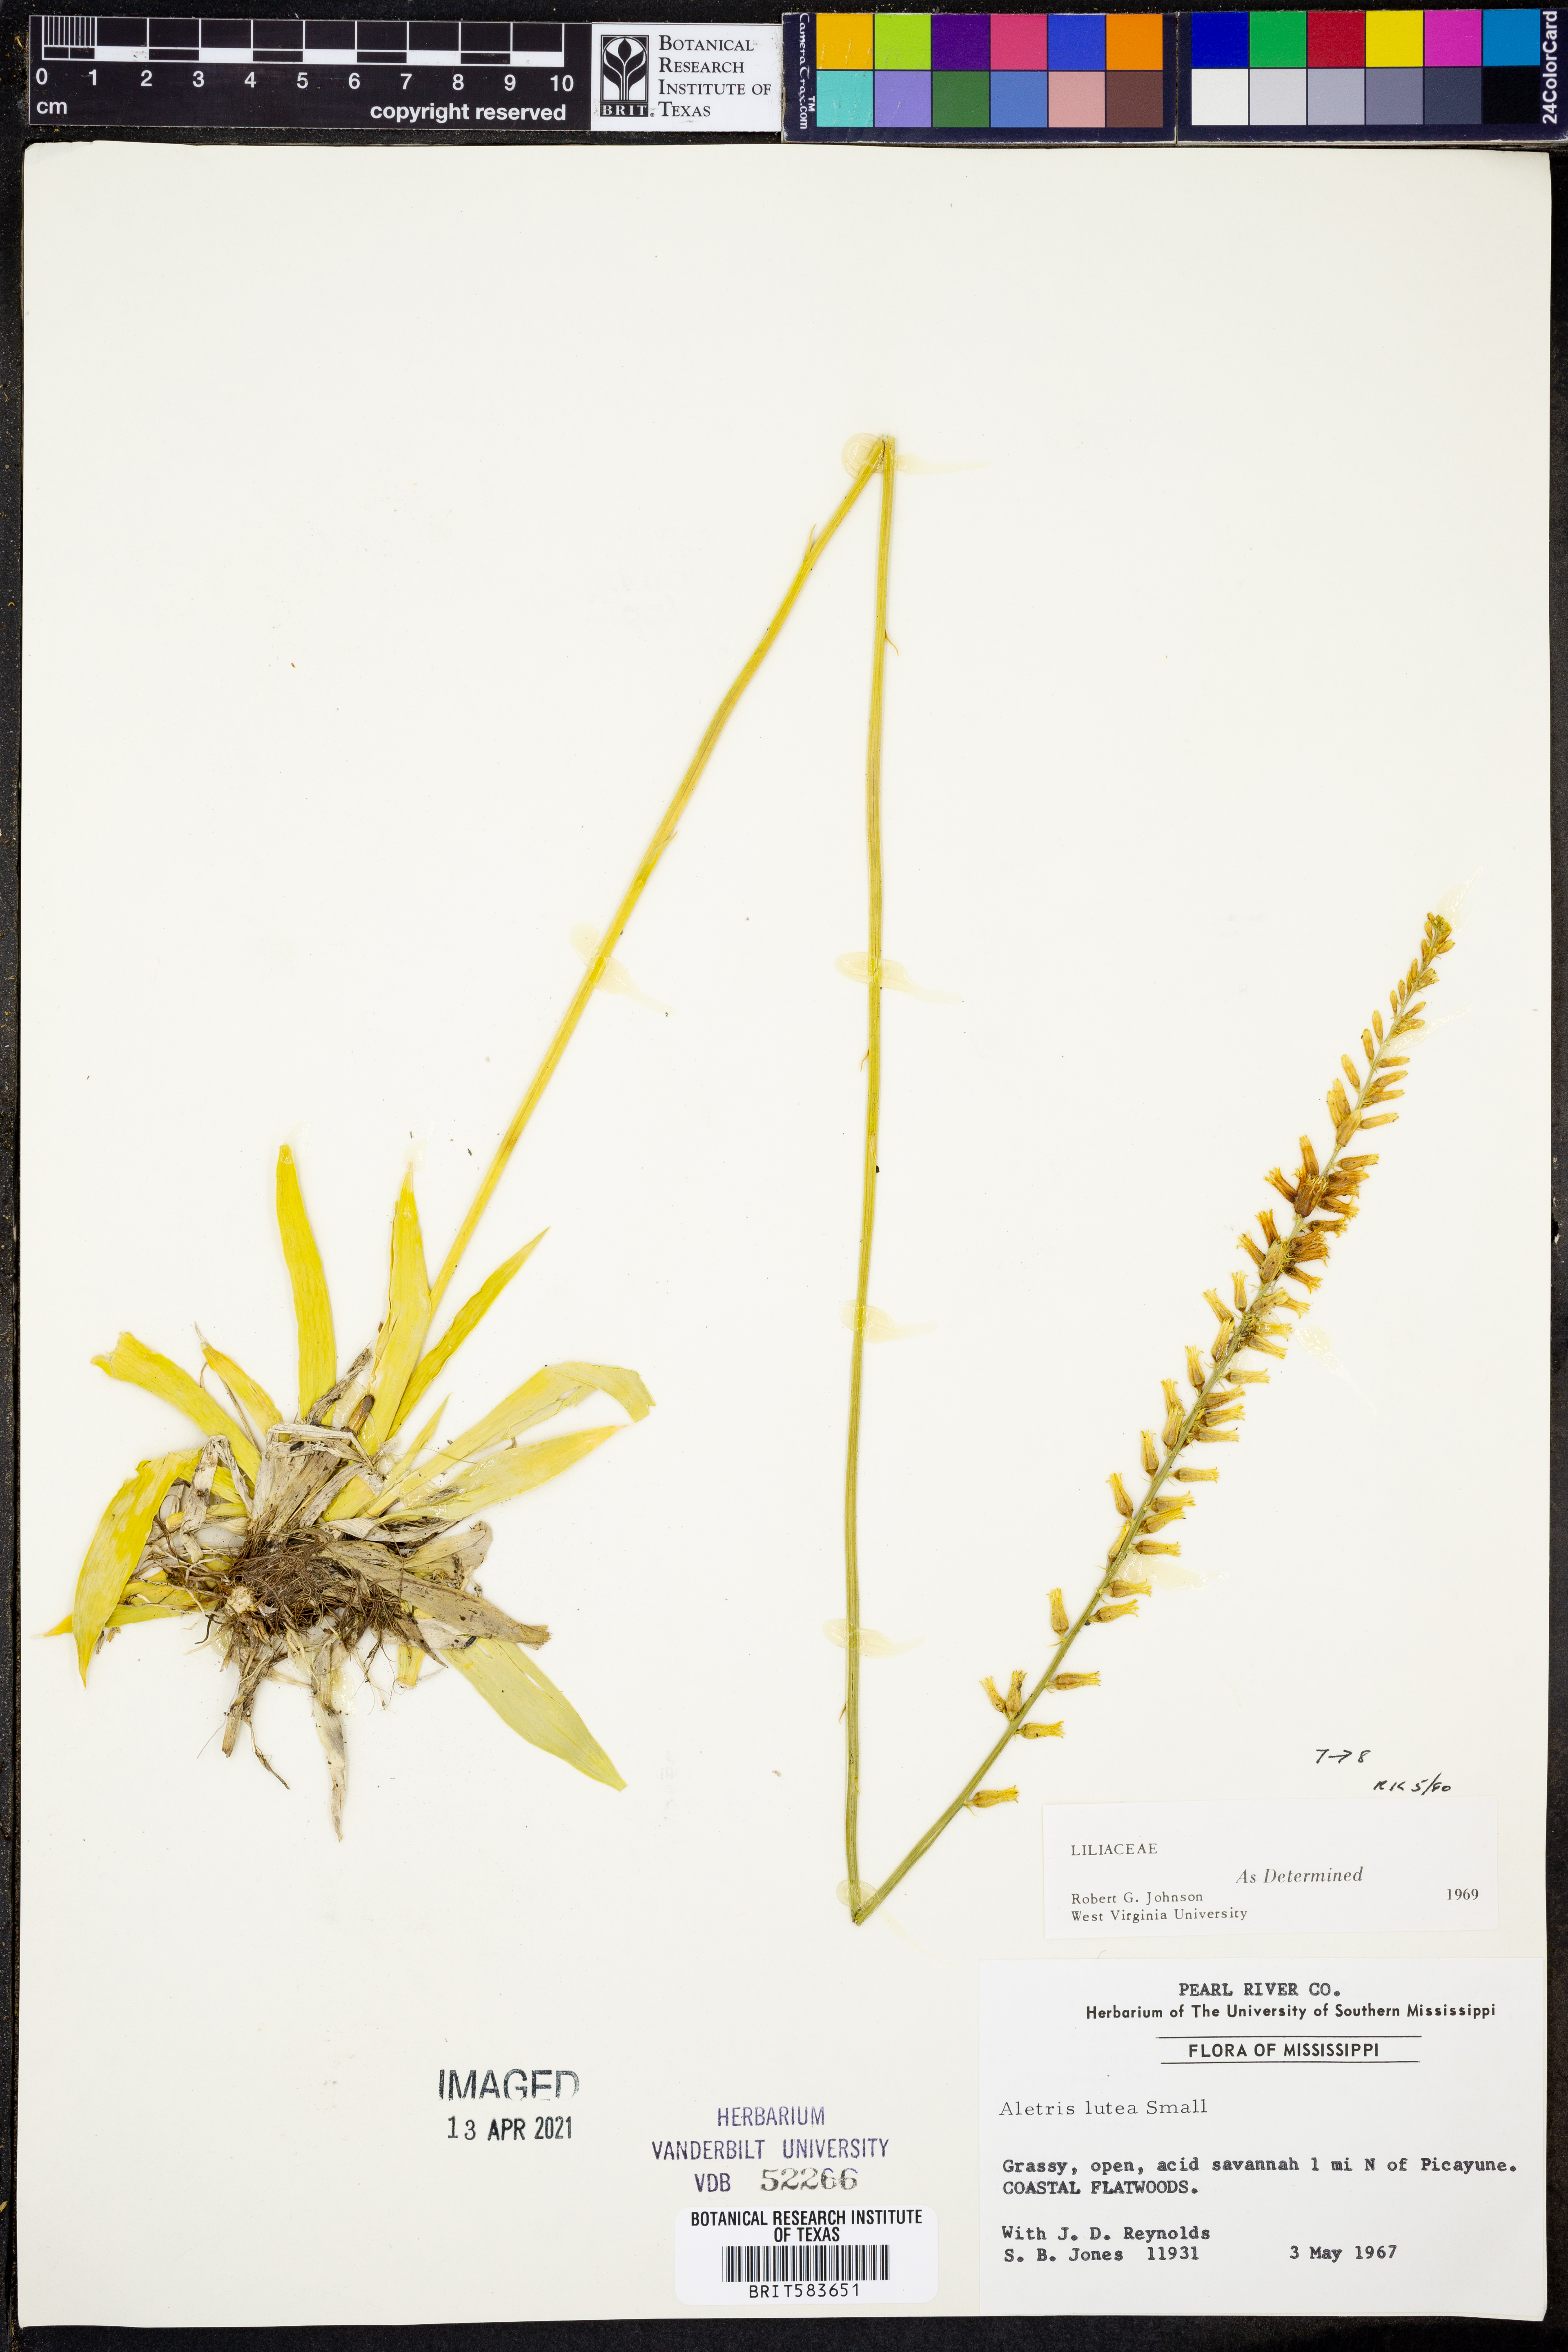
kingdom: Plantae
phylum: Tracheophyta
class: Liliopsida
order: Dioscoreales
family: Nartheciaceae
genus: Aletris
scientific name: Aletris lutea
